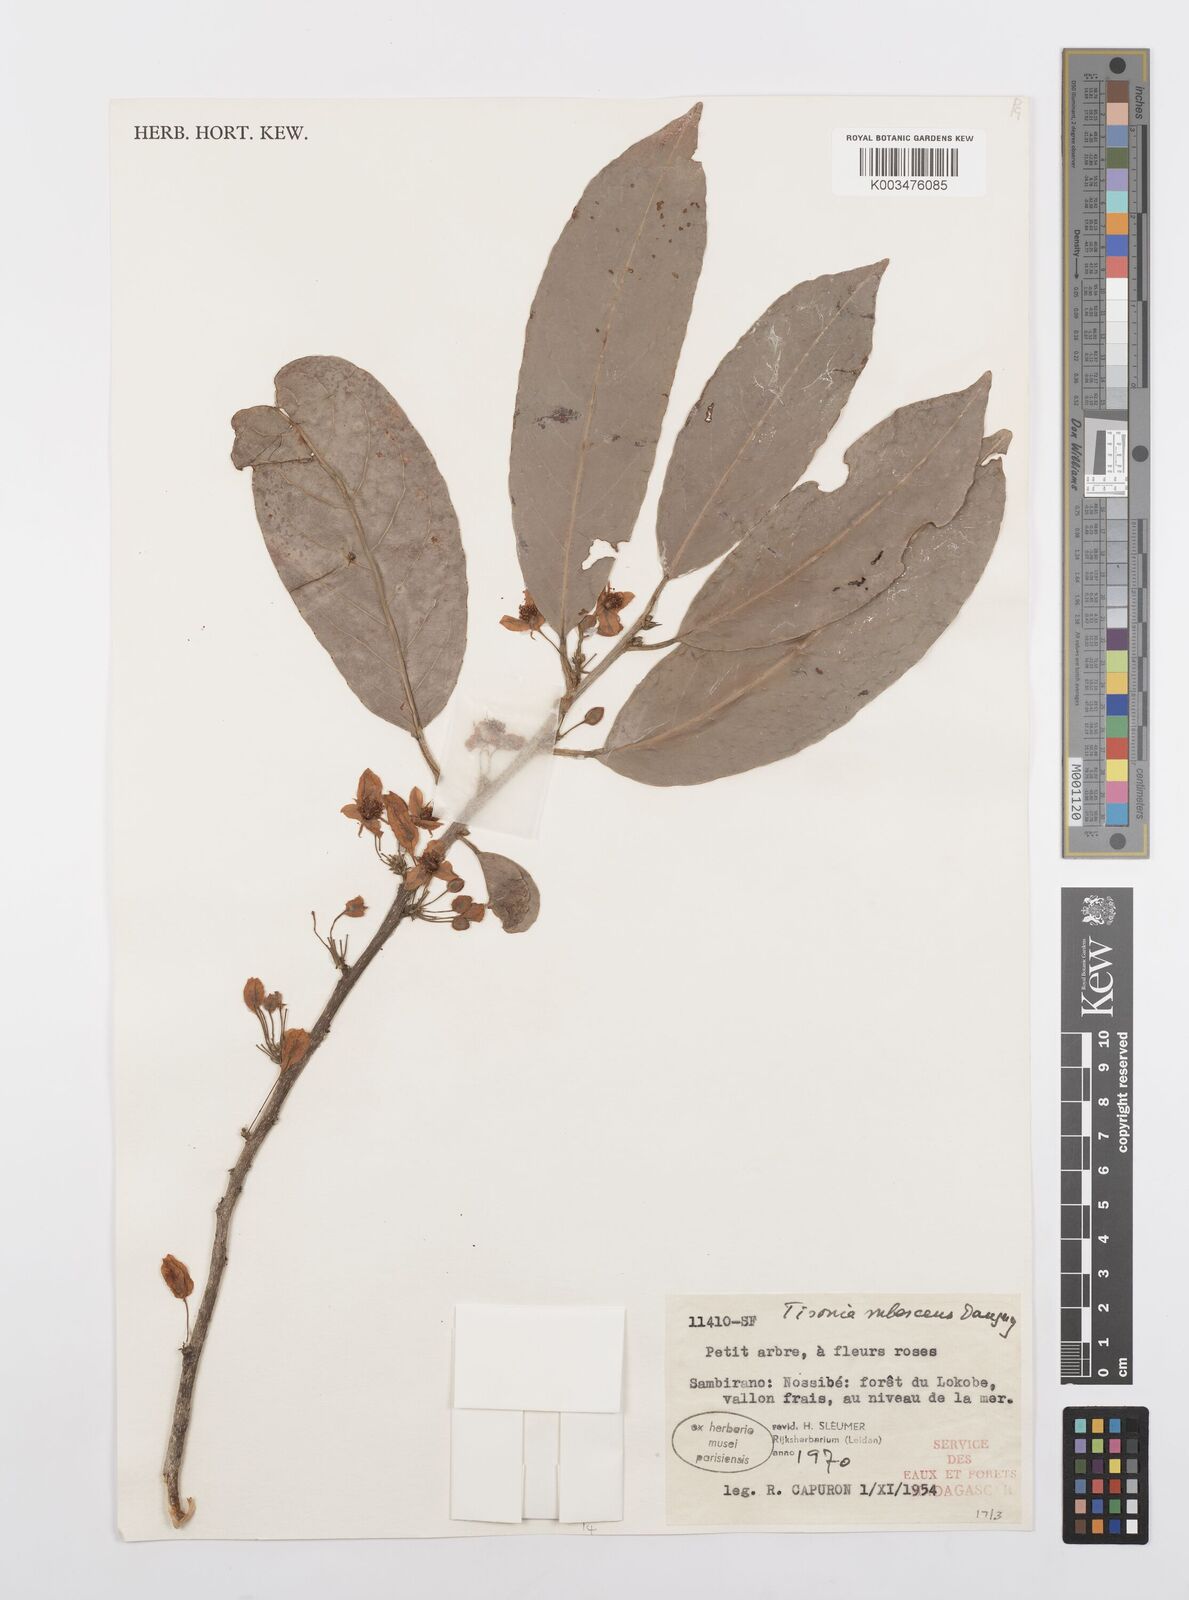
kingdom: Plantae
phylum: Tracheophyta
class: Magnoliopsida
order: Malpighiales
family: Salicaceae
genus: Tisonia
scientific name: Tisonia rubescens
